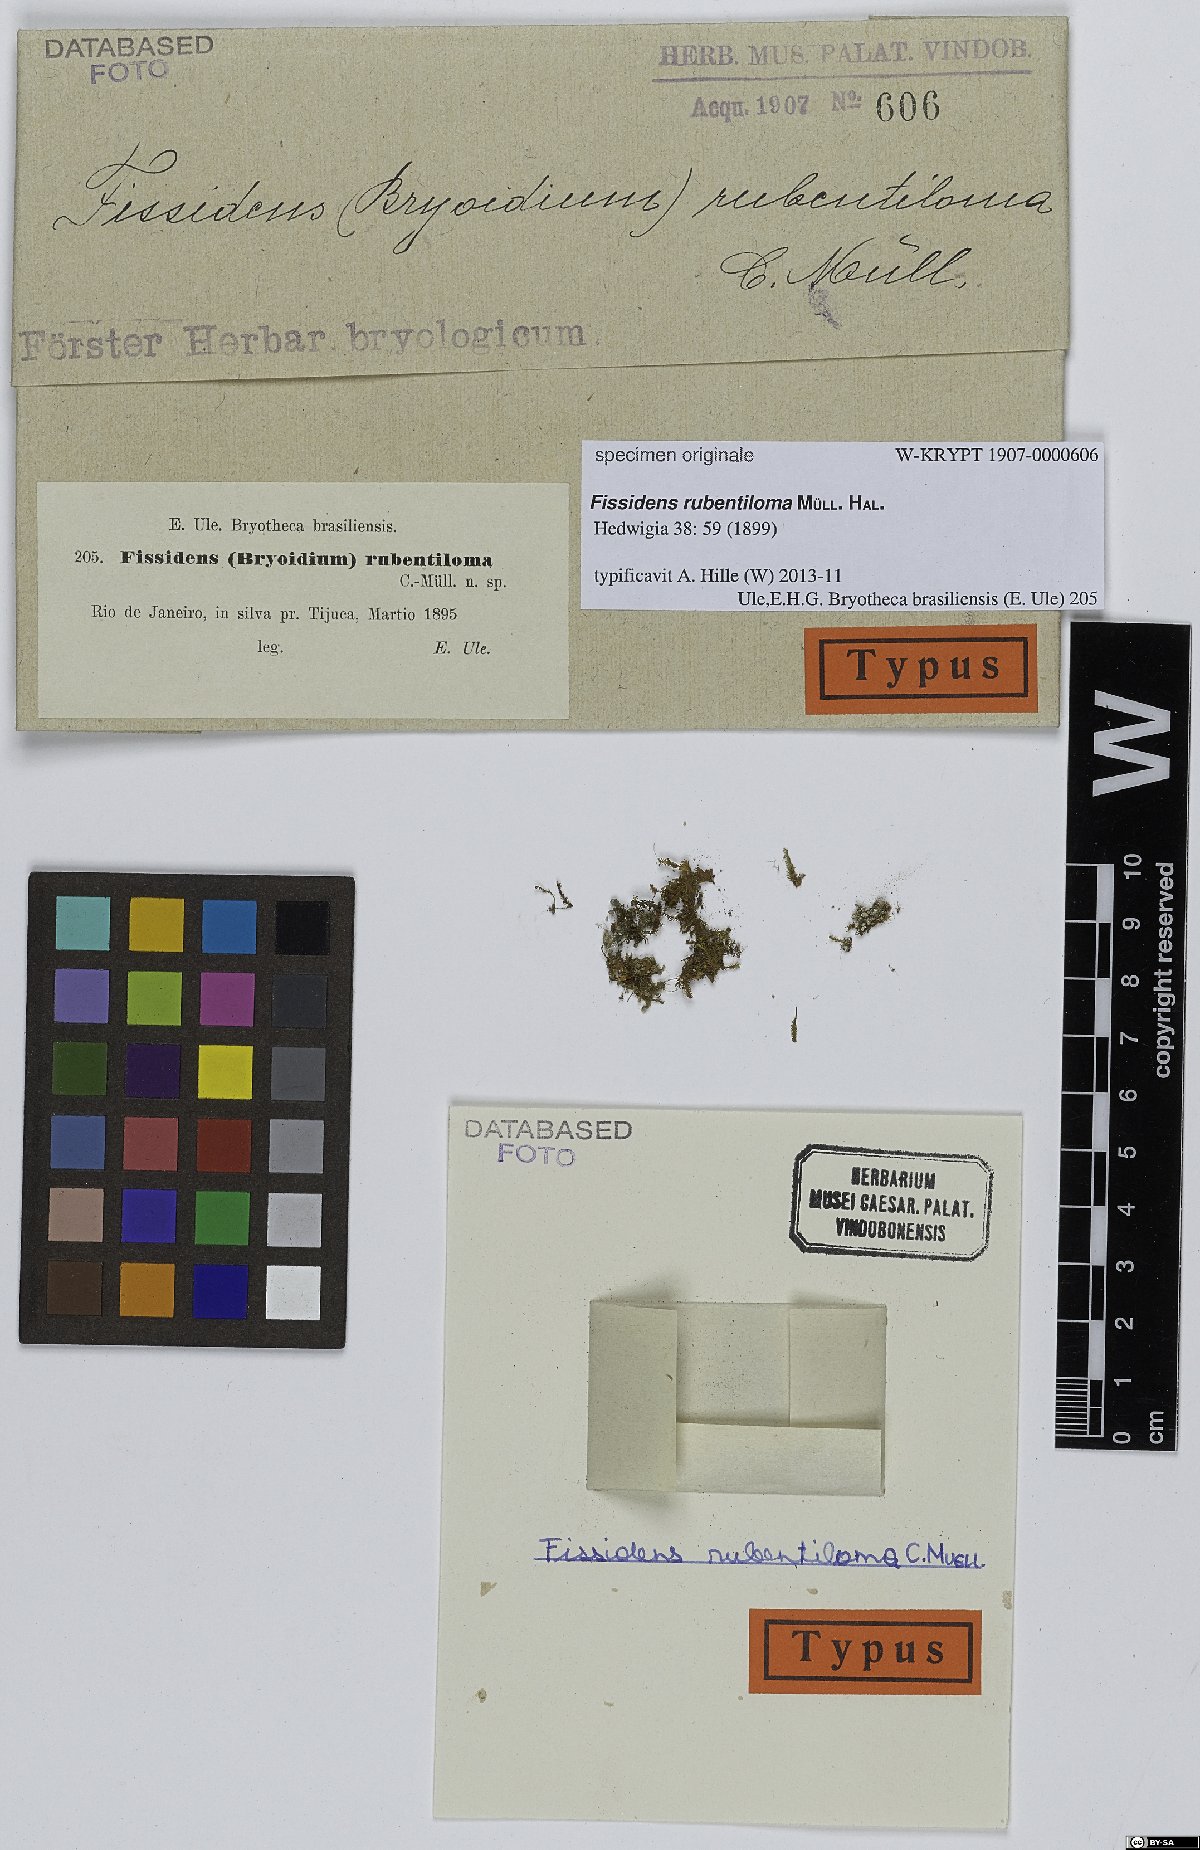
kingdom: Plantae
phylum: Bryophyta
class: Bryopsida
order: Dicranales
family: Fissidentaceae
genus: Fissidens
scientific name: Fissidens intromarginatus
